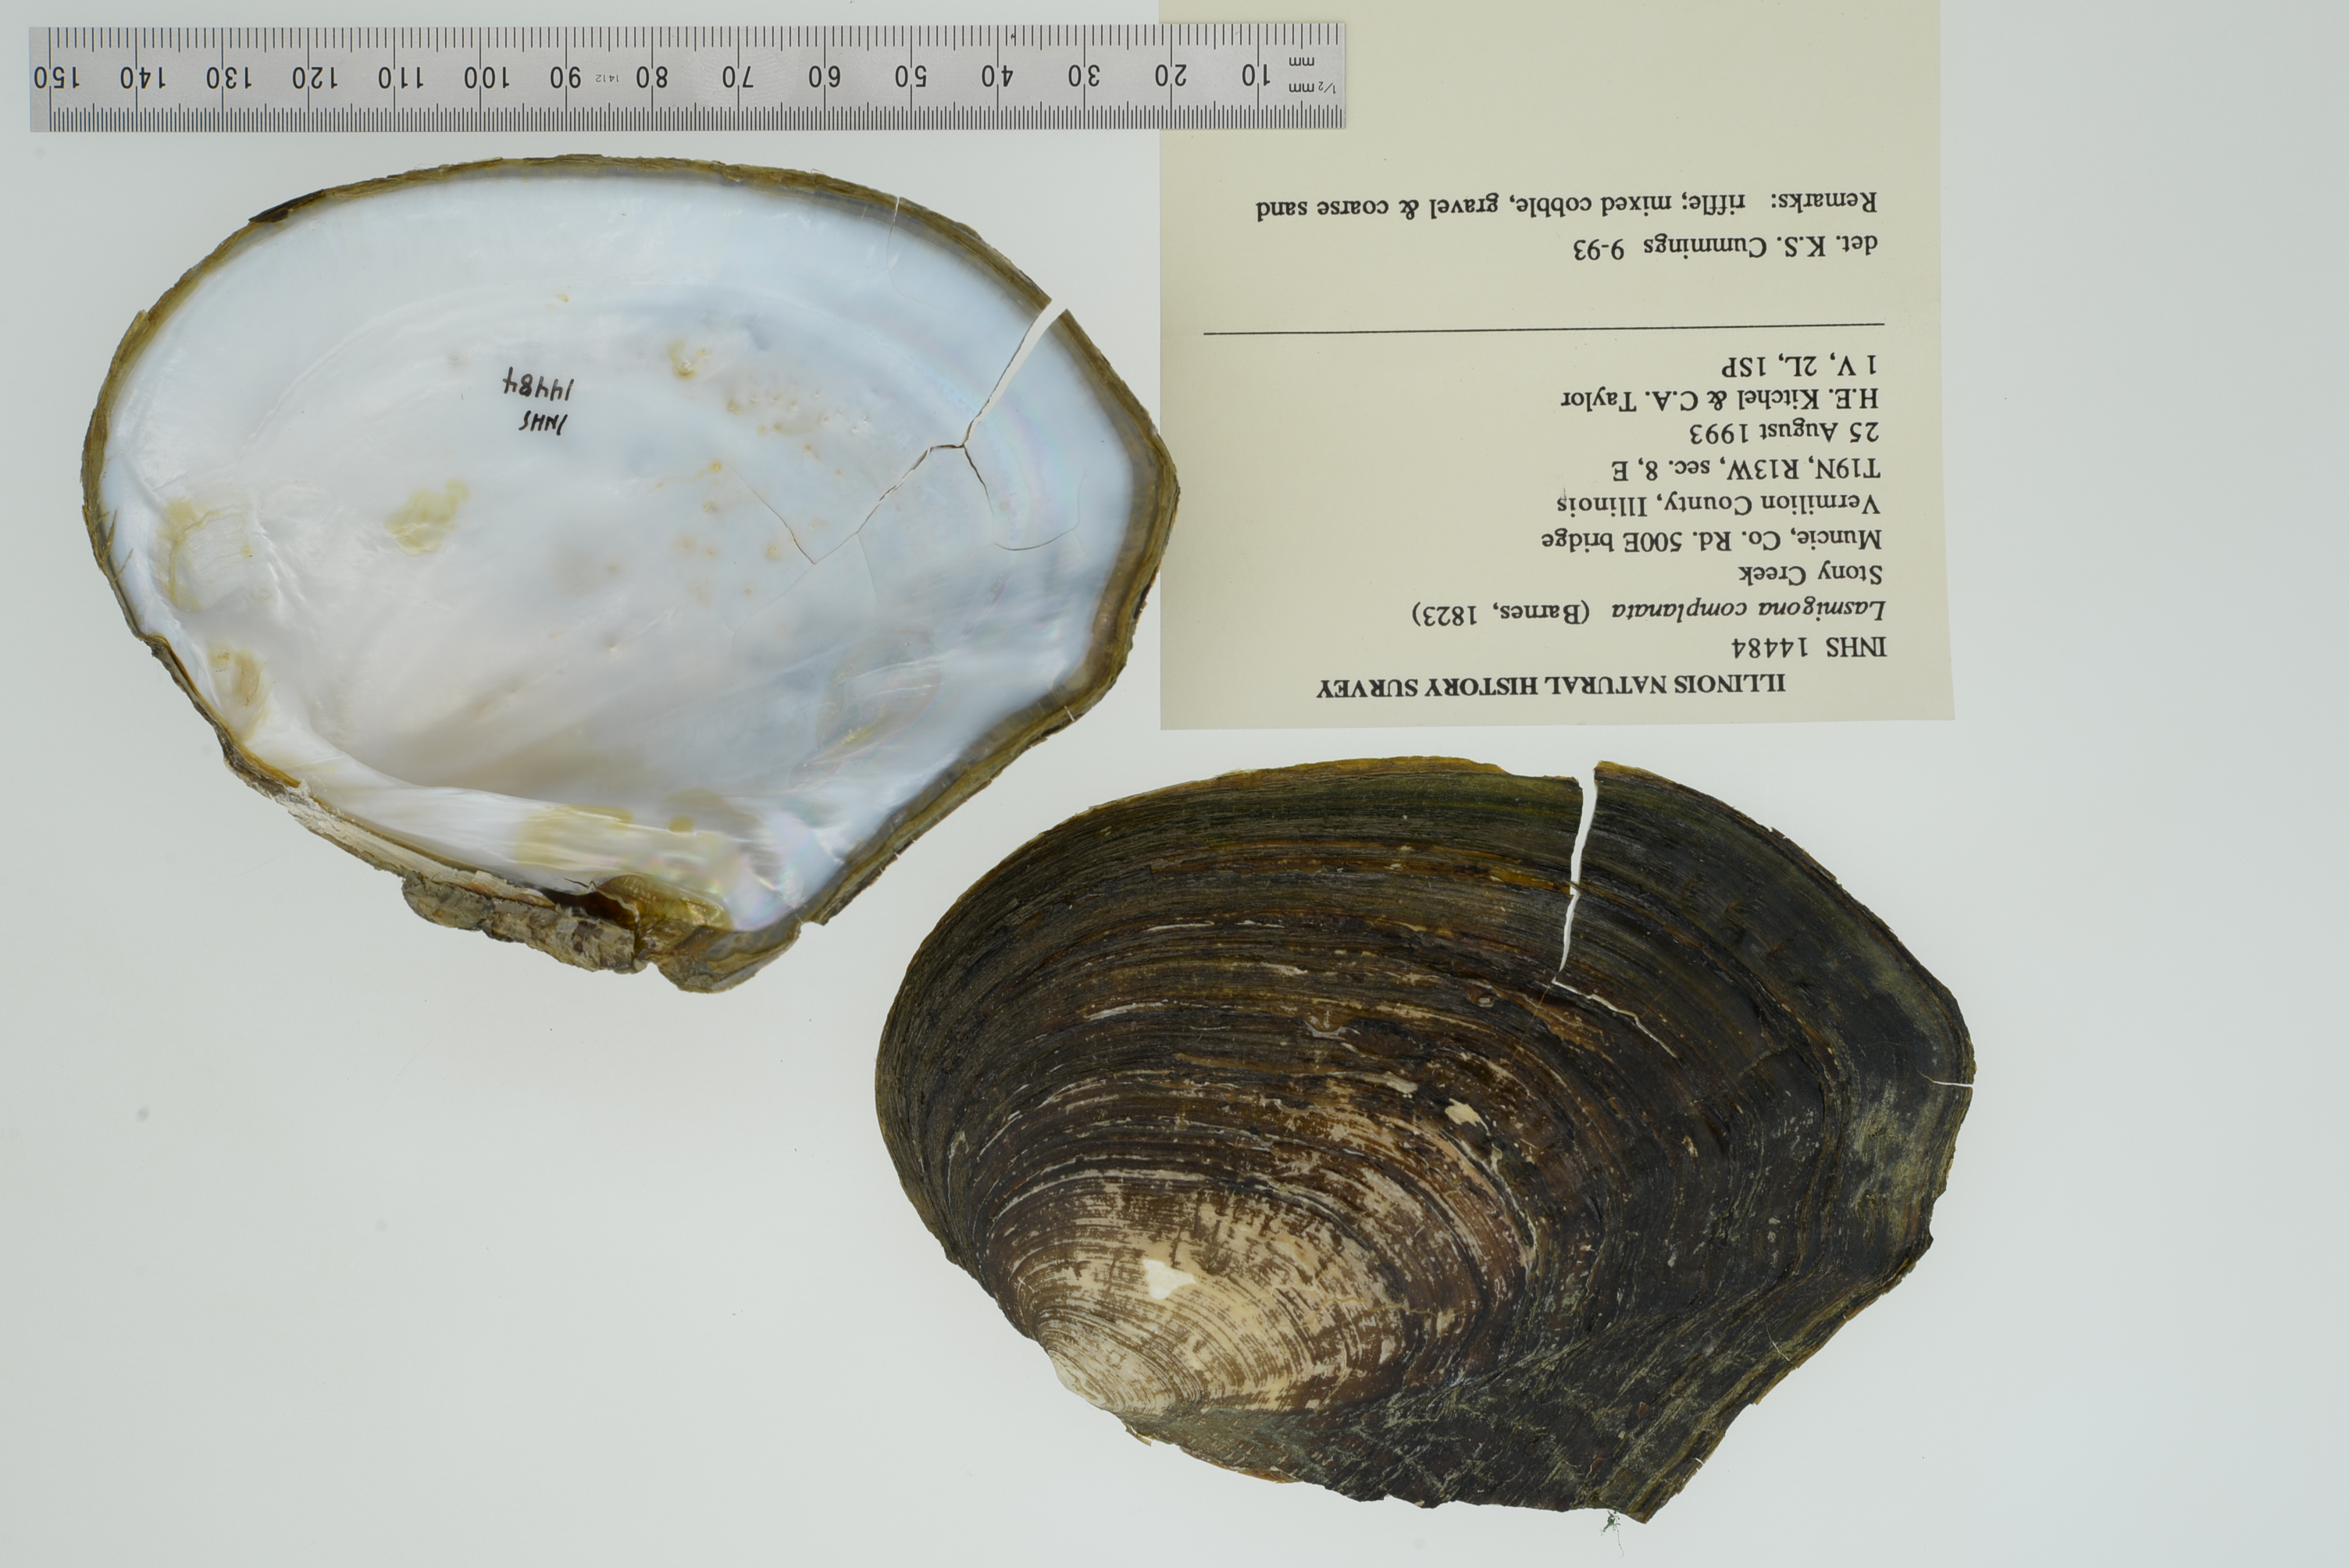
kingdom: Animalia
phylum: Mollusca
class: Bivalvia
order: Unionida
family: Unionidae
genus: Lasmigona
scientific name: Lasmigona complanata
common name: White heelsplitter
